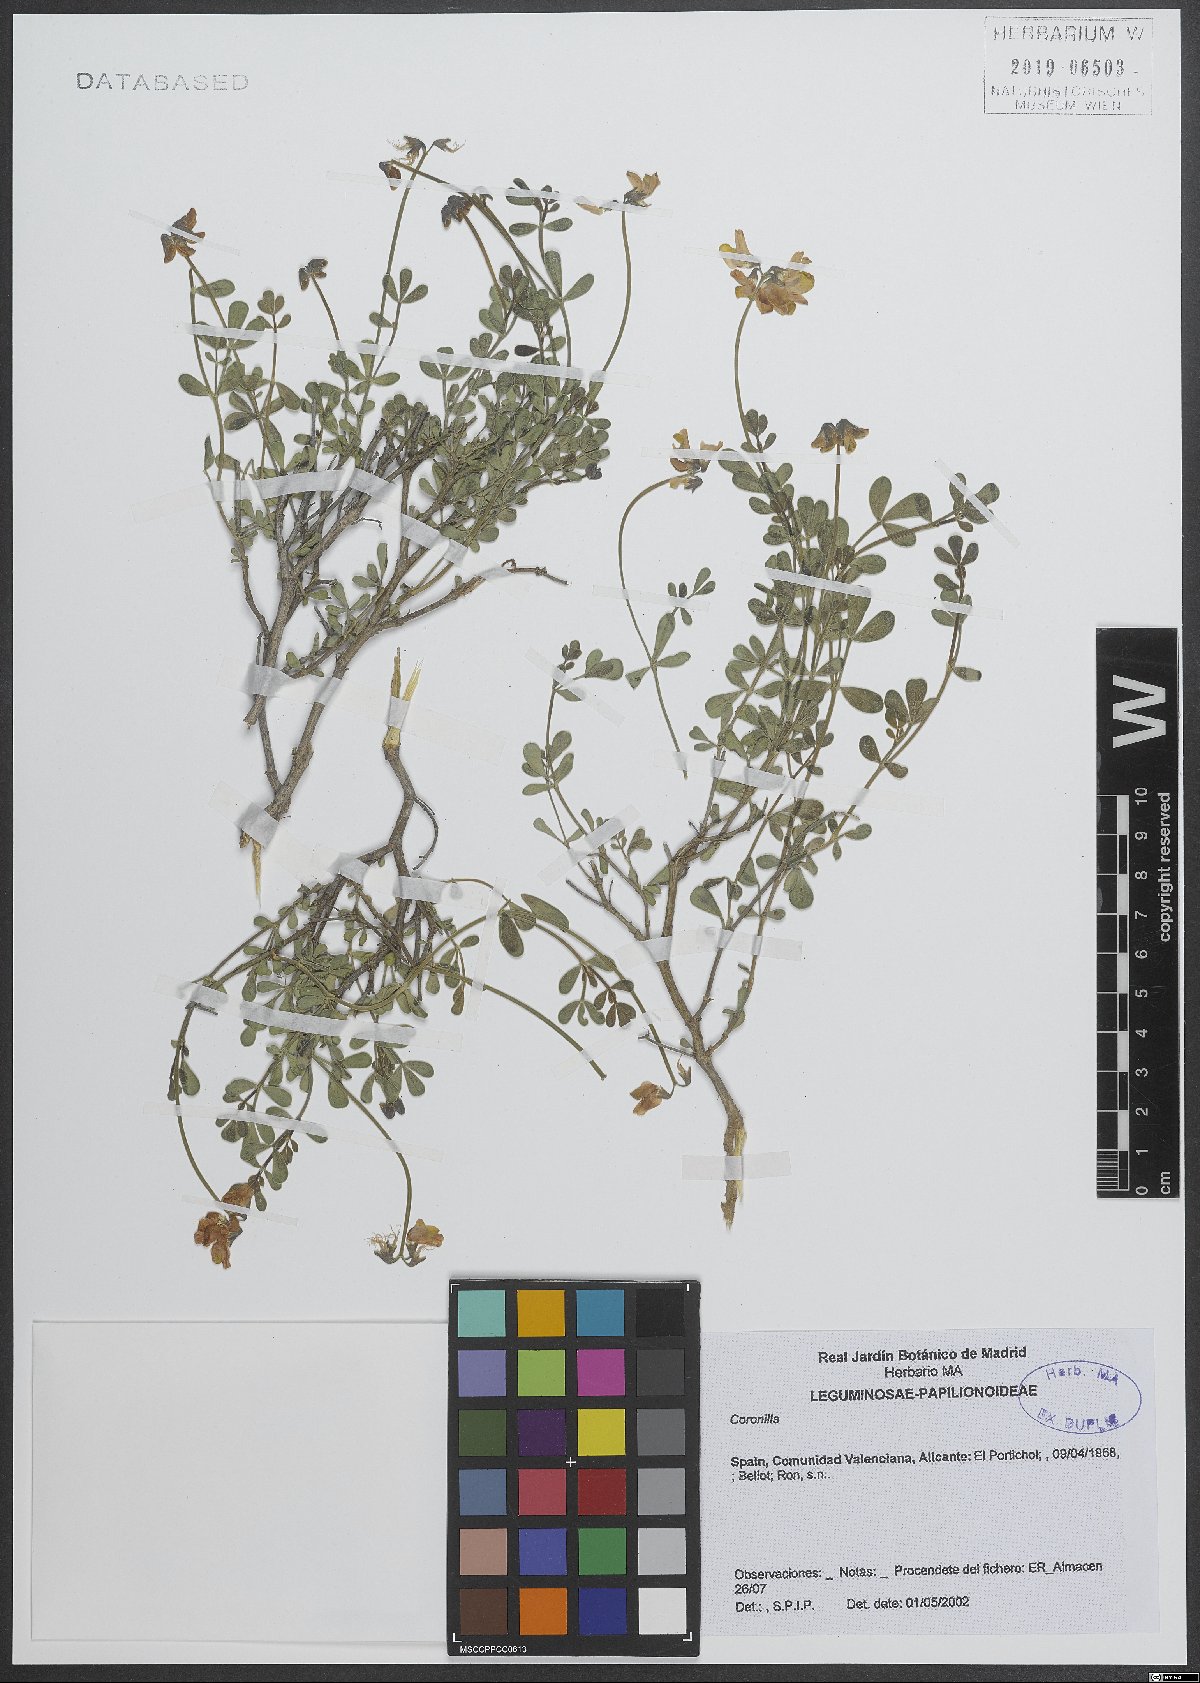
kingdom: Plantae
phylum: Tracheophyta
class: Magnoliopsida
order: Fabales
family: Fabaceae
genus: Coronilla
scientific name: Coronilla
